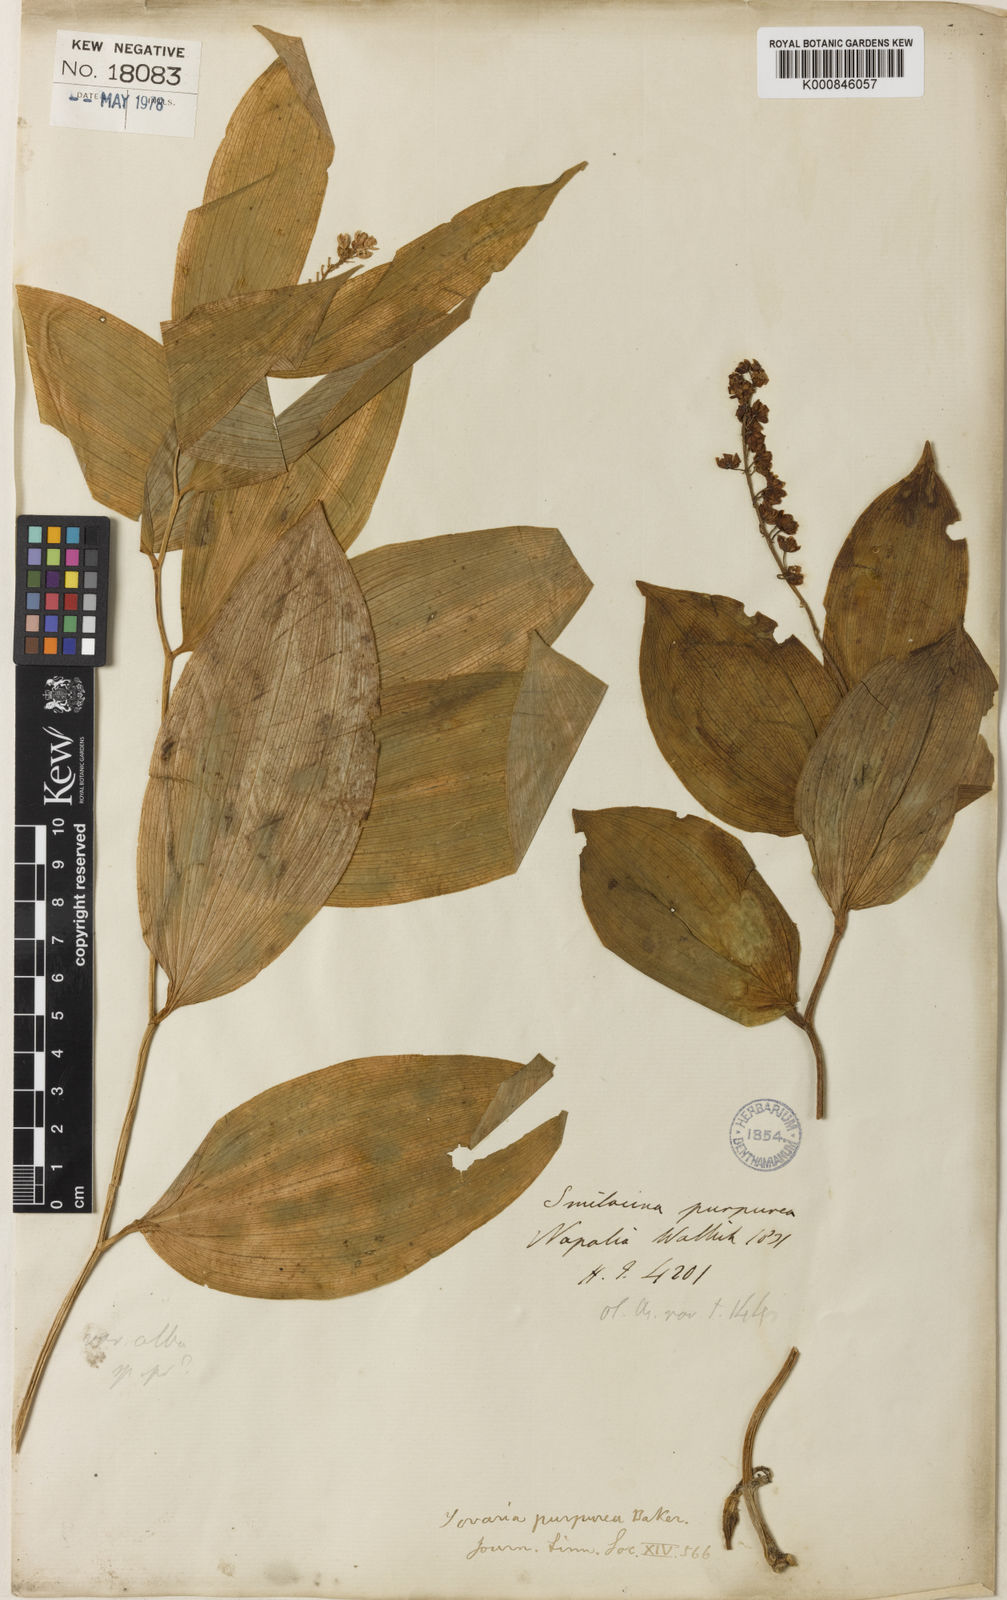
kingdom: Plantae
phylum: Tracheophyta
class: Liliopsida
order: Asparagales
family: Asparagaceae
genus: Maianthemum
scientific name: Maianthemum purpureum
